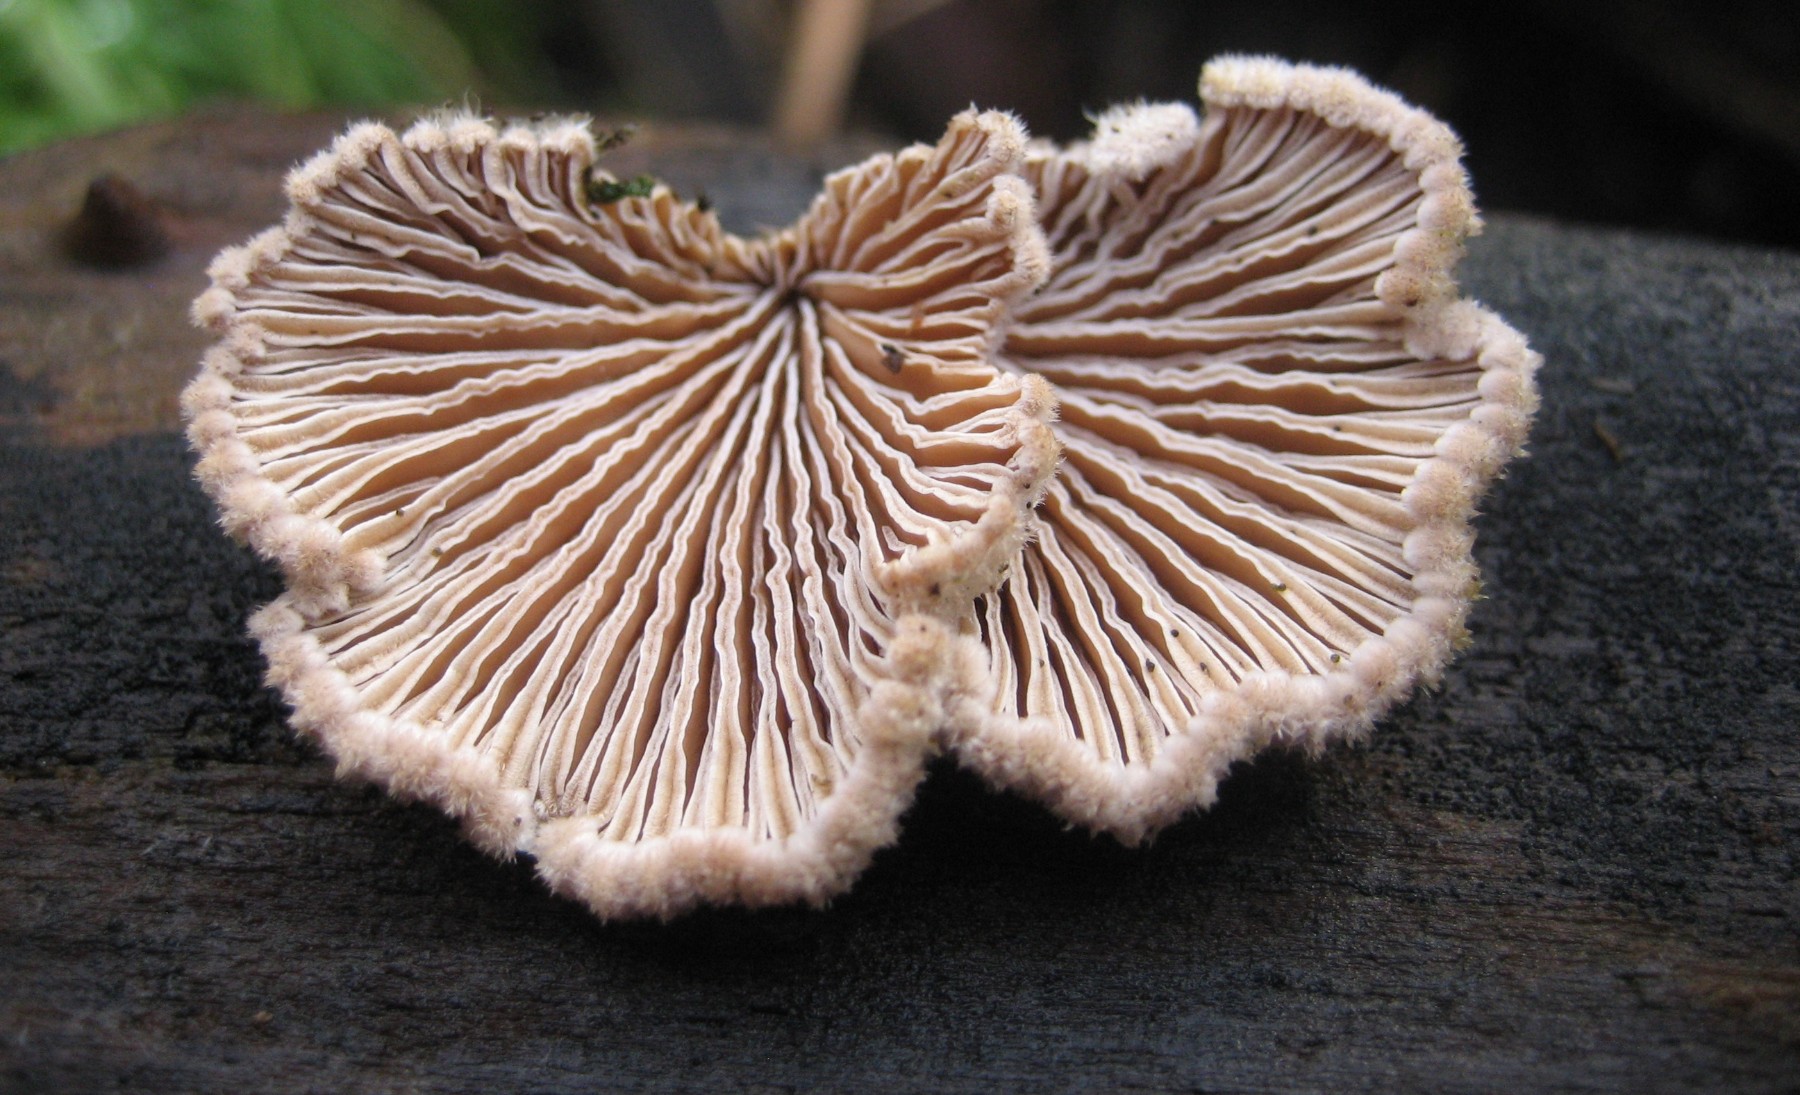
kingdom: Fungi
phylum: Basidiomycota
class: Agaricomycetes
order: Agaricales
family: Schizophyllaceae
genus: Schizophyllum
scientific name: Schizophyllum commune
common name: kløvblad
